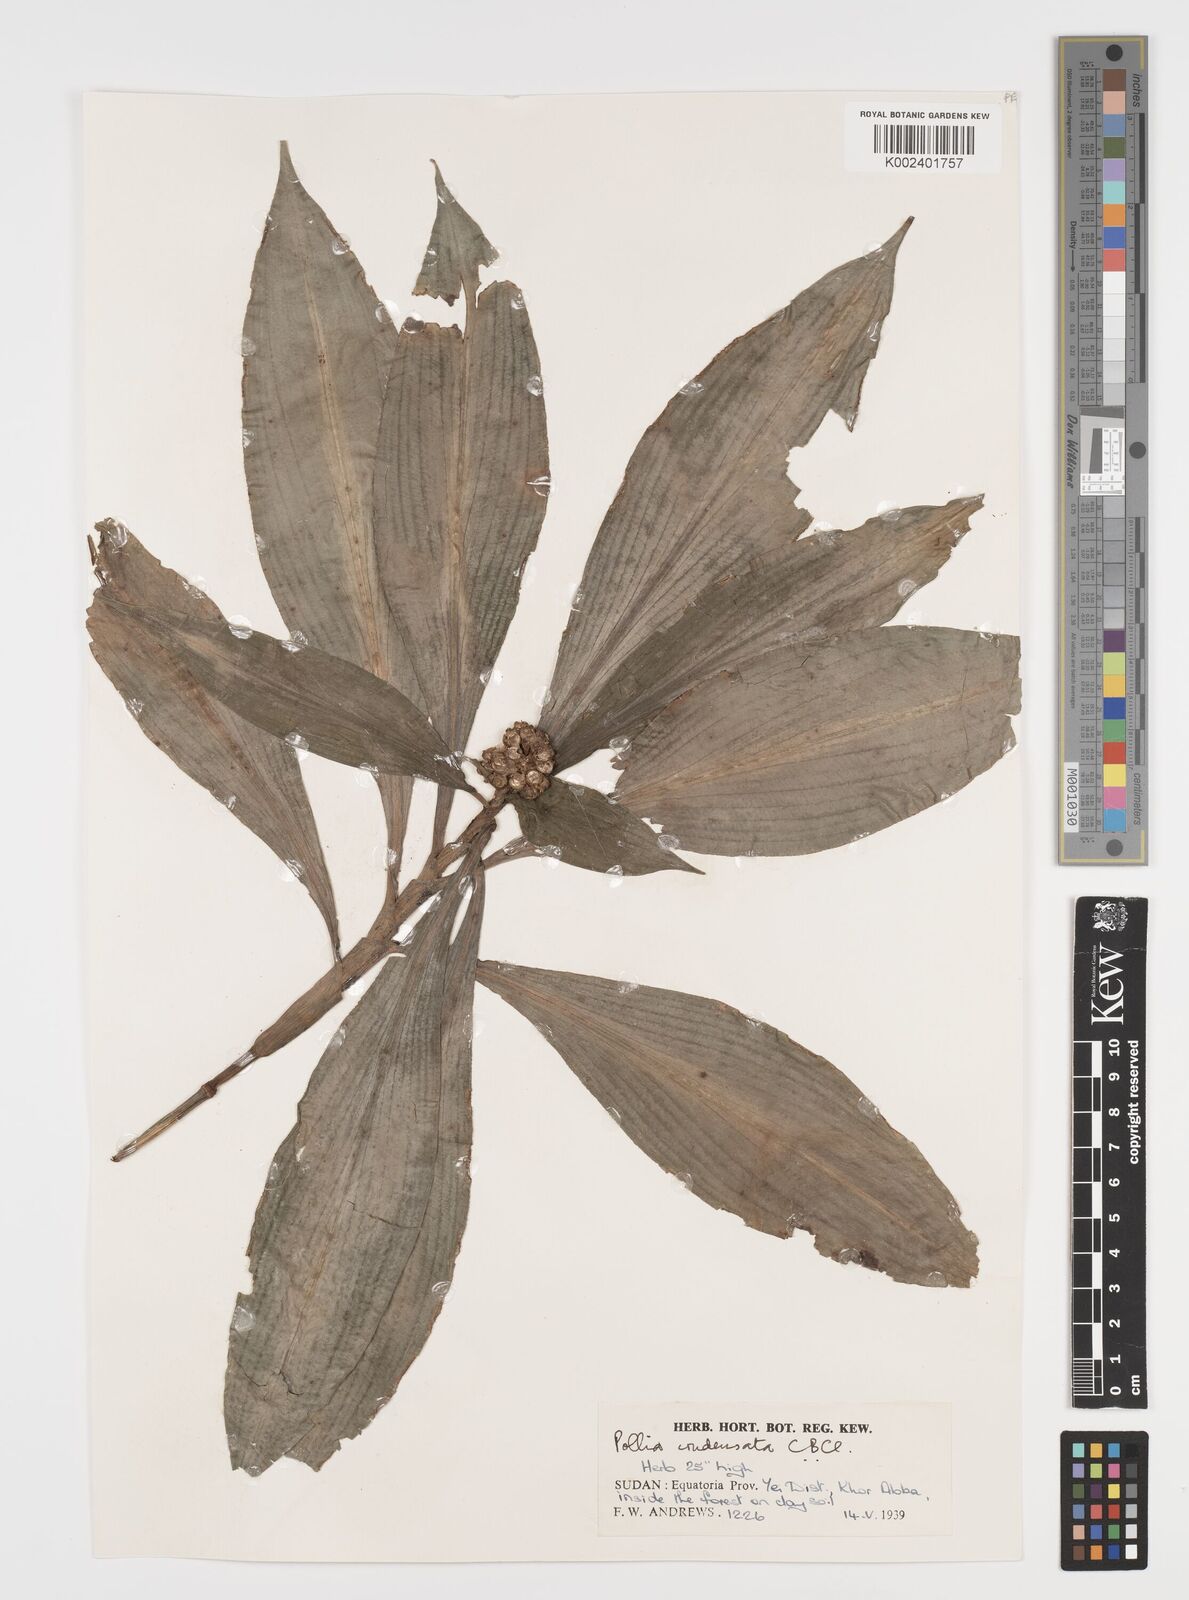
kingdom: Plantae
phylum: Tracheophyta
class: Liliopsida
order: Commelinales
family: Commelinaceae
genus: Pollia
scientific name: Pollia condensata
